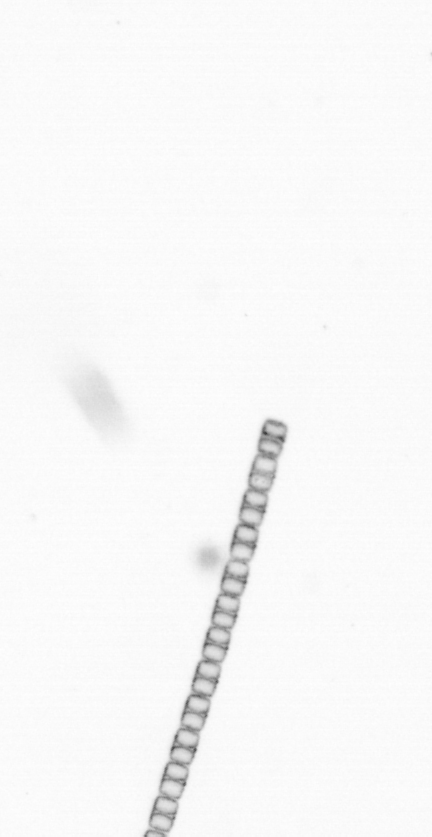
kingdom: Chromista
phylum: Ochrophyta
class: Bacillariophyceae
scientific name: Bacillariophyceae
